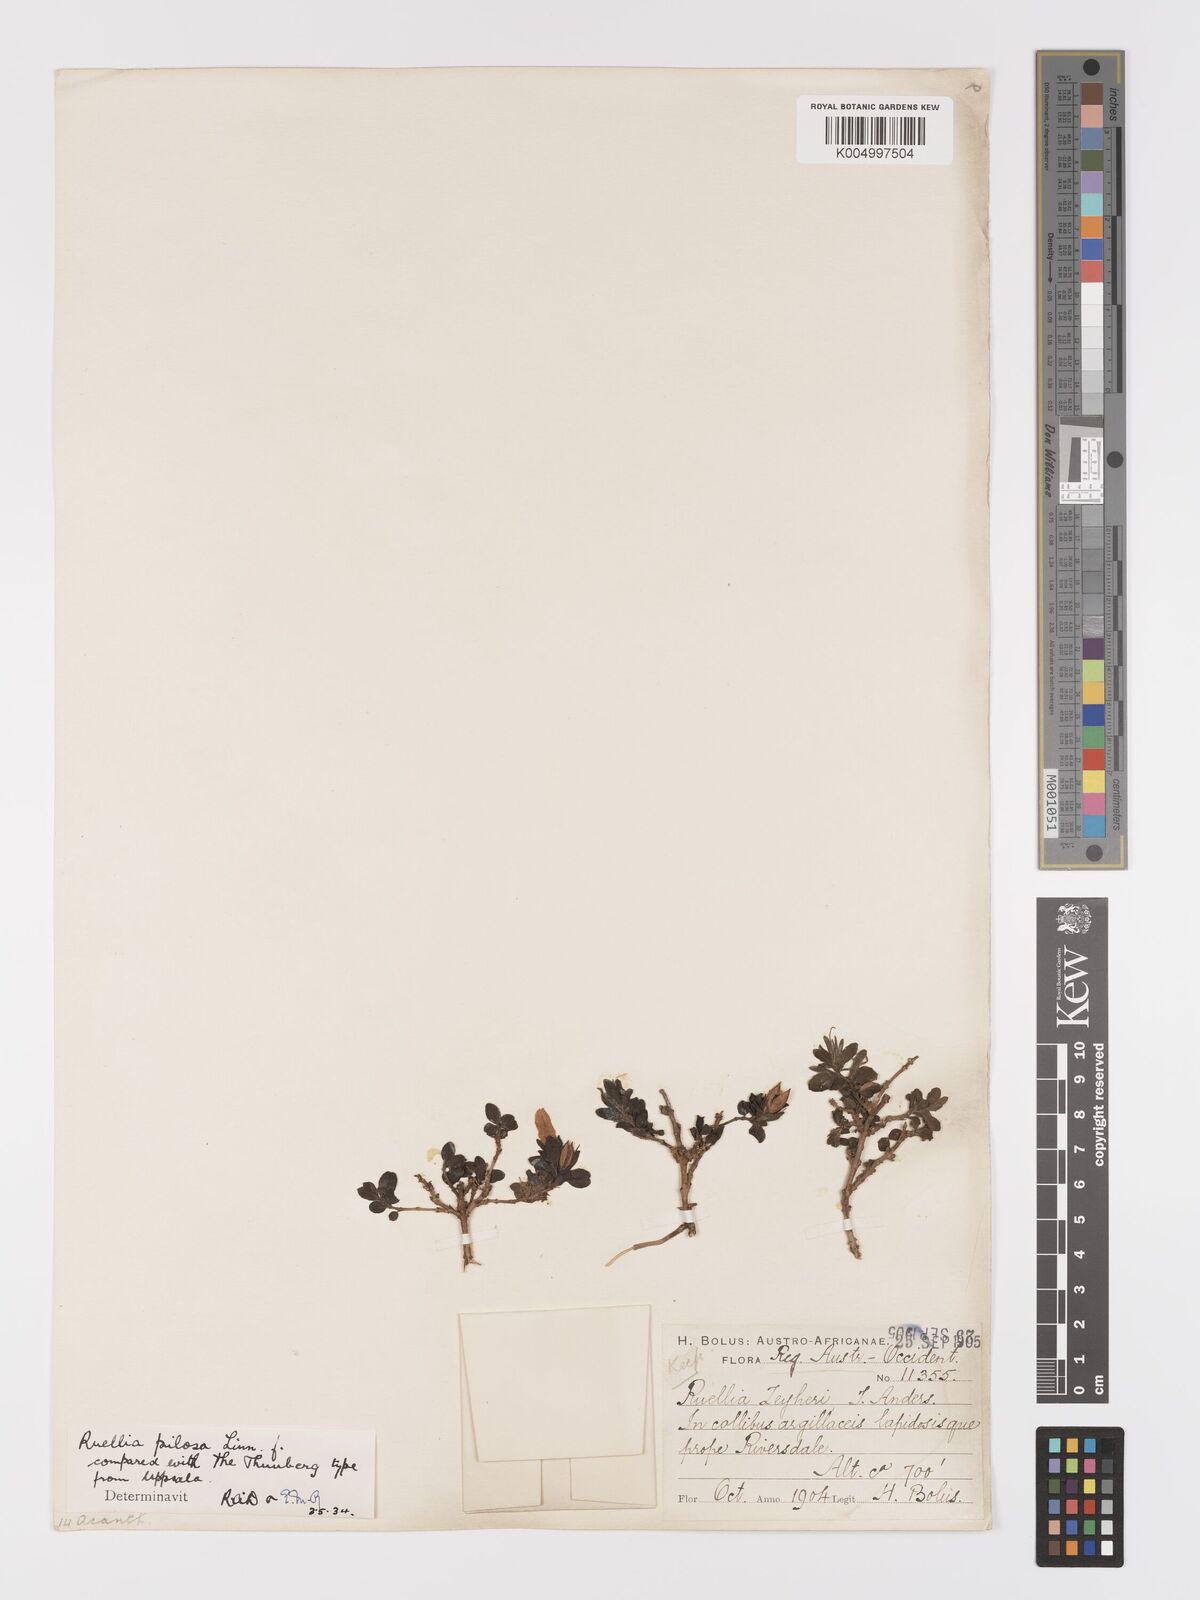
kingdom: Plantae
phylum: Tracheophyta
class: Magnoliopsida
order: Lamiales
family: Acanthaceae
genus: Ruellia
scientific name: Ruellia
